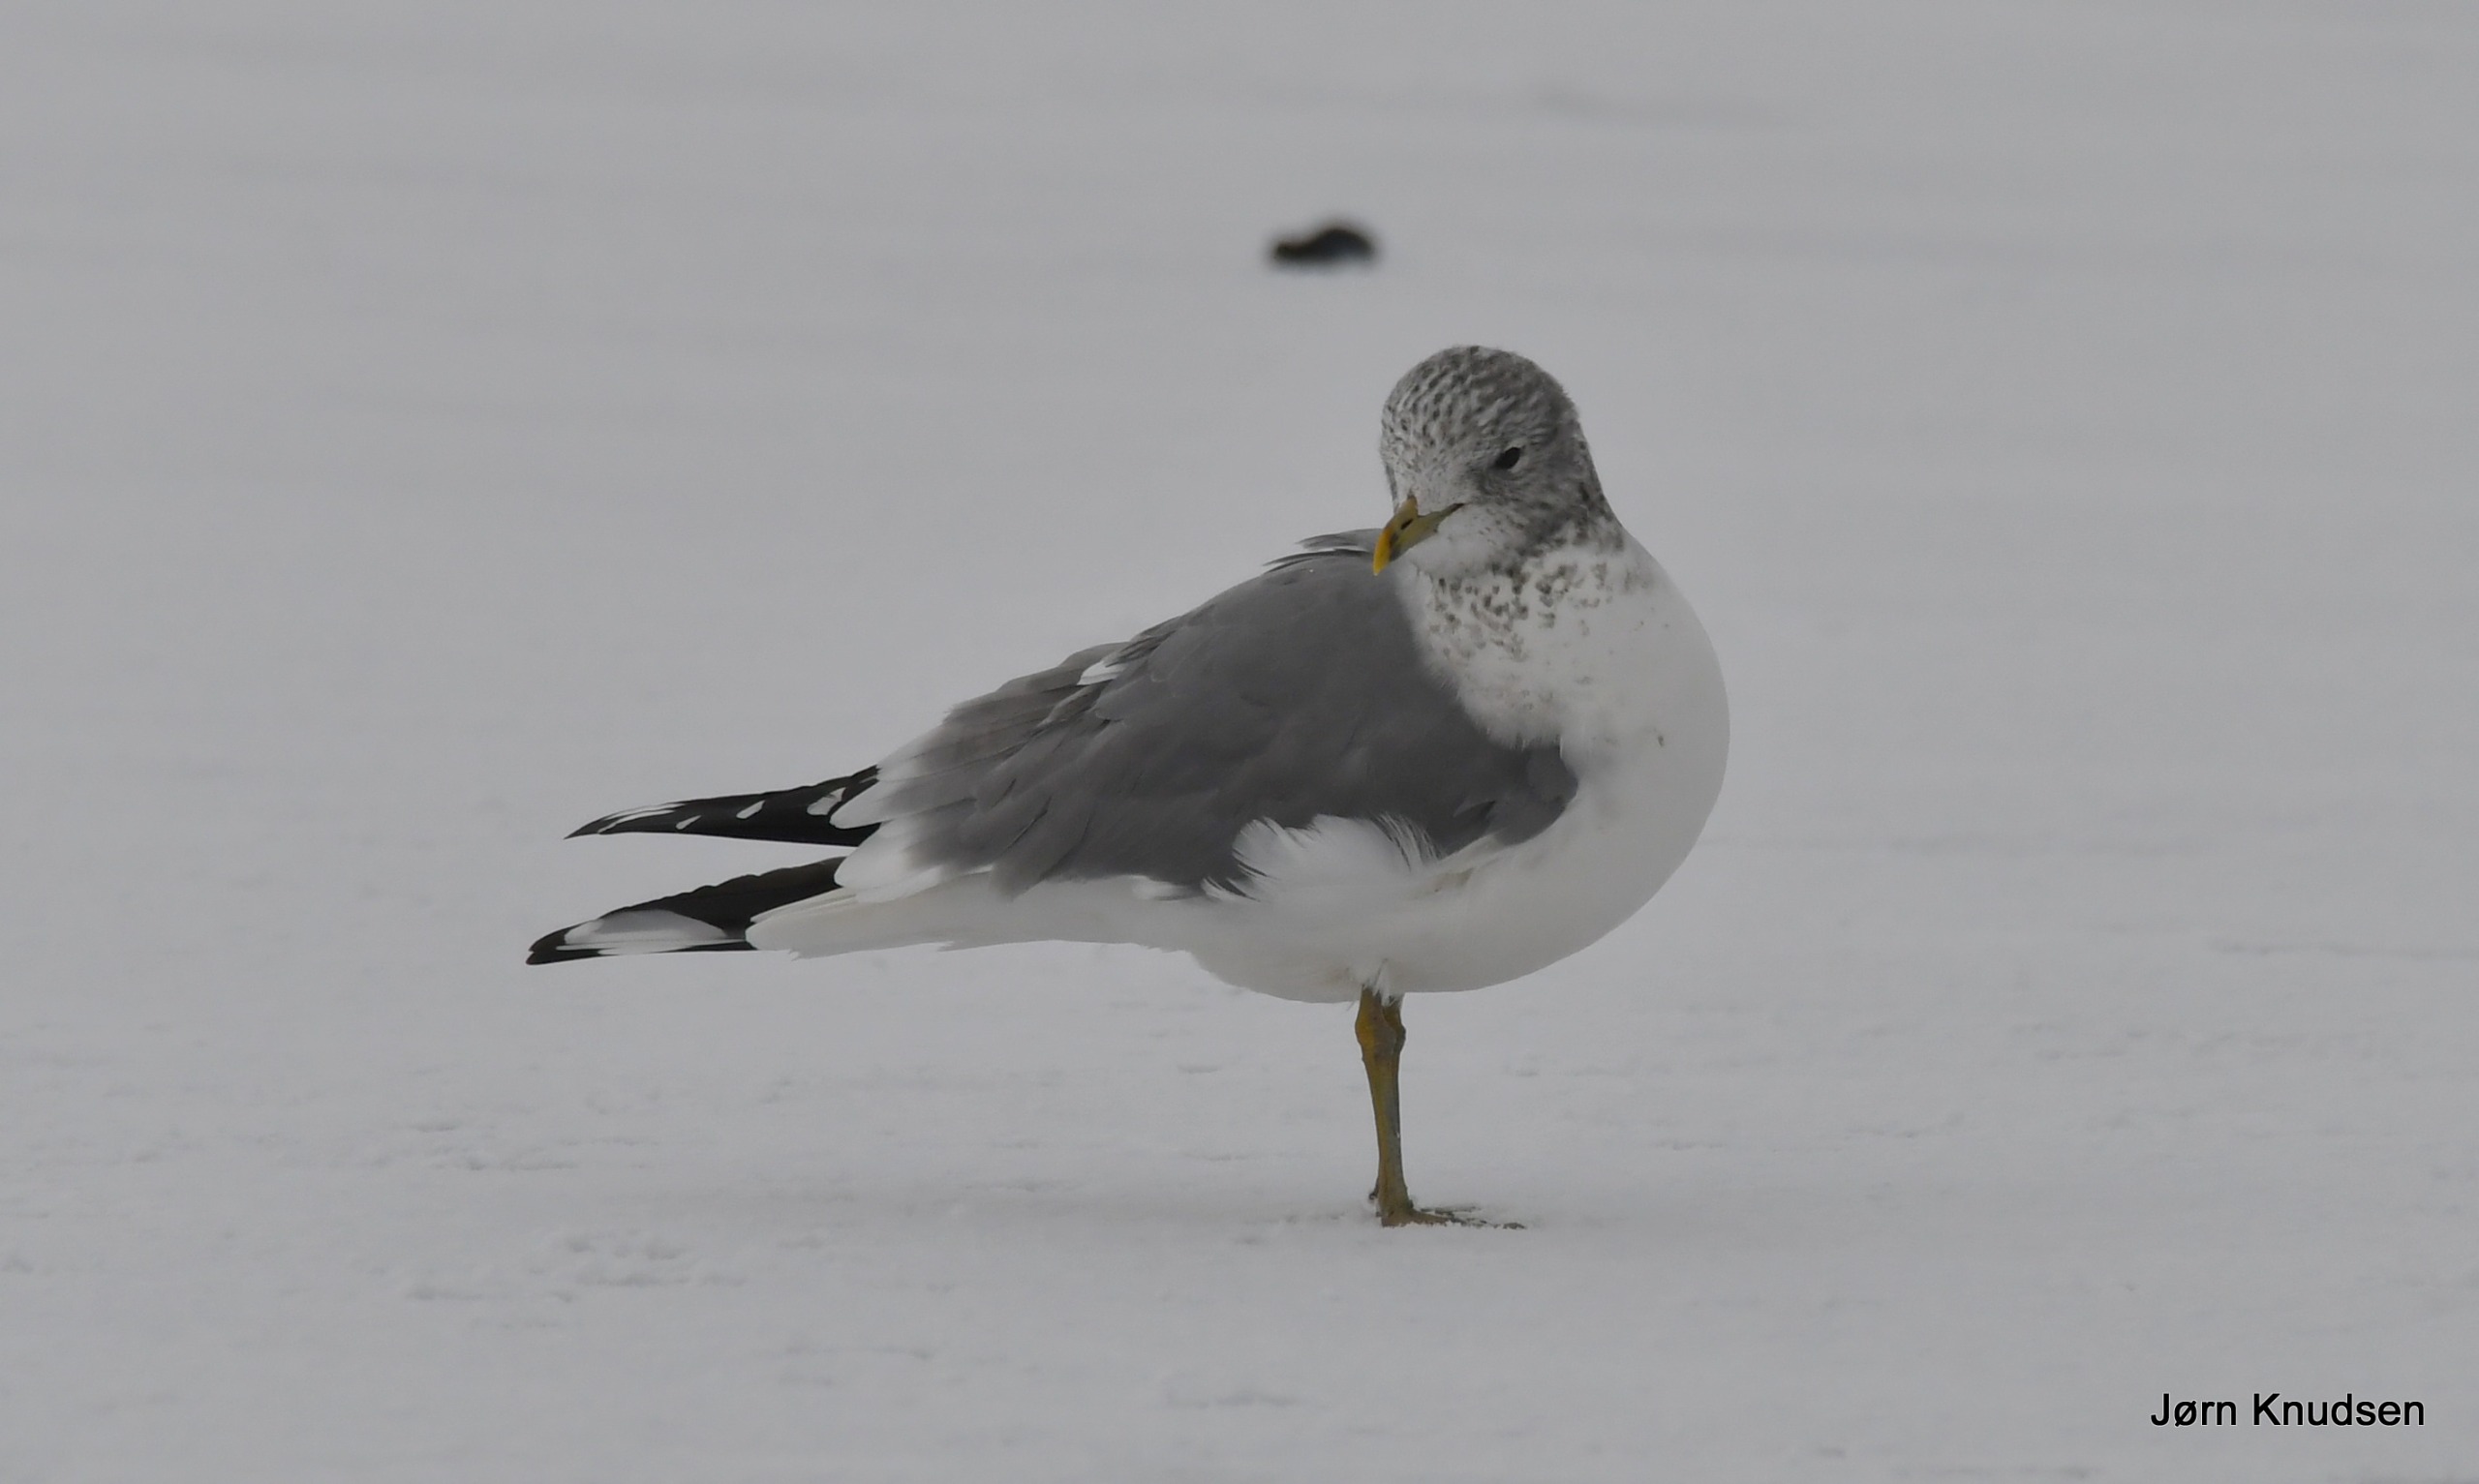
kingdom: Animalia
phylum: Chordata
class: Aves
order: Charadriiformes
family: Laridae
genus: Larus
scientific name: Larus canus
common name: Stormmåge
